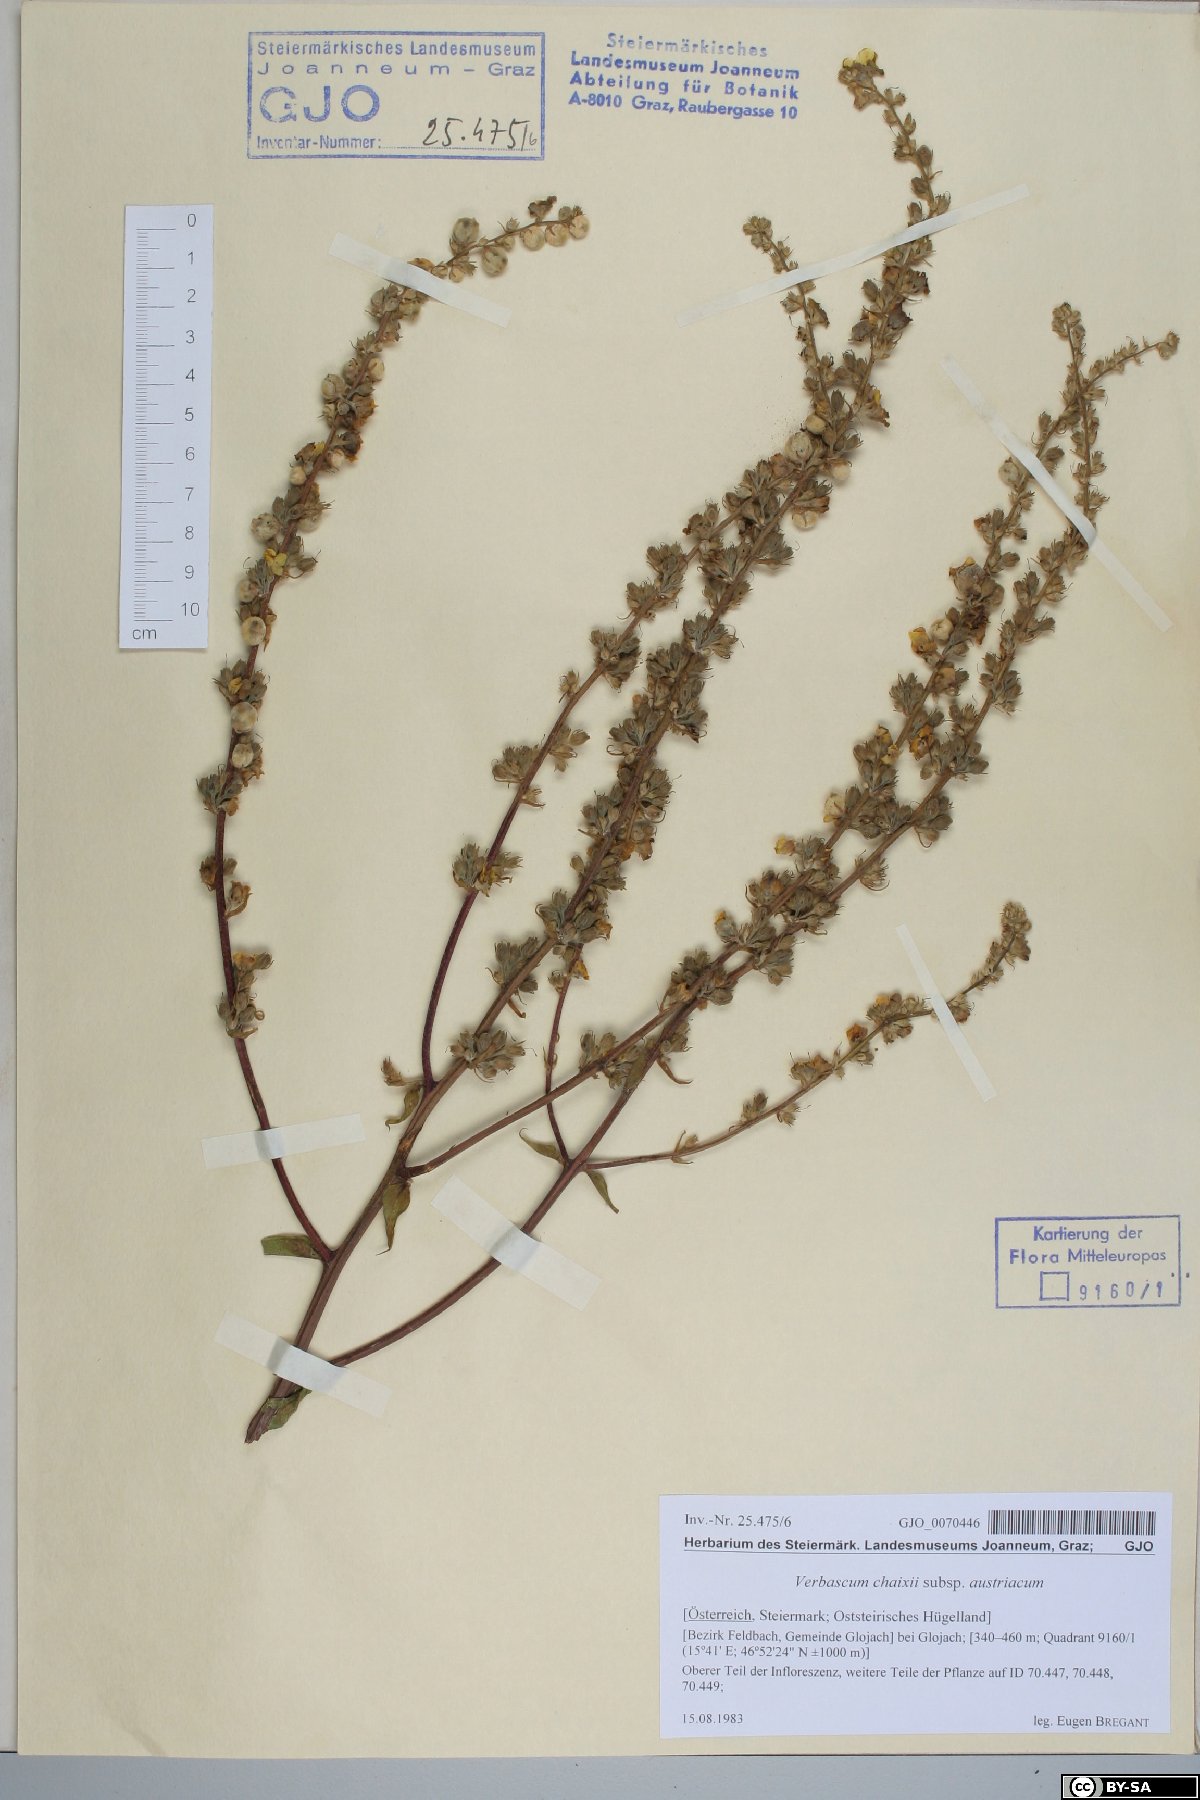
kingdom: Plantae
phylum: Tracheophyta
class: Magnoliopsida
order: Lamiales
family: Scrophulariaceae
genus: Verbascum
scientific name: Verbascum chaixii
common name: Nettle-leaved mullein
